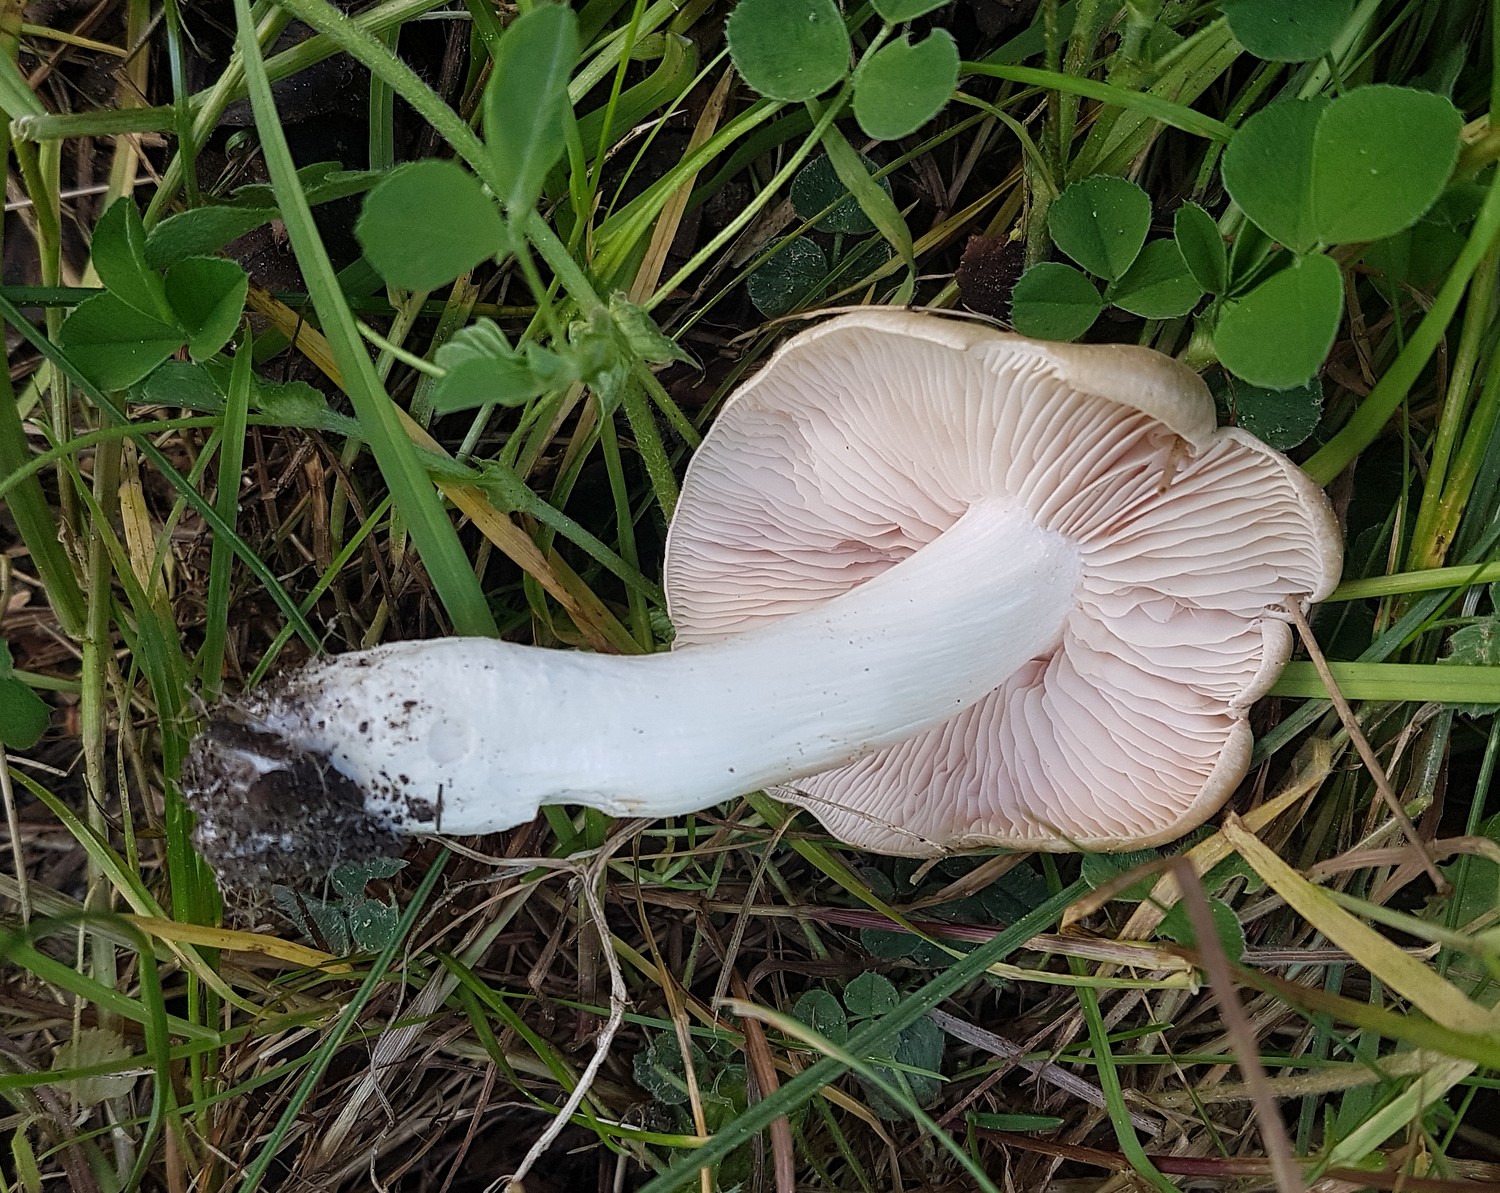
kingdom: Fungi
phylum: Basidiomycota
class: Agaricomycetes
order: Agaricales
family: Entolomataceae
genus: Entoloma
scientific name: Entoloma
